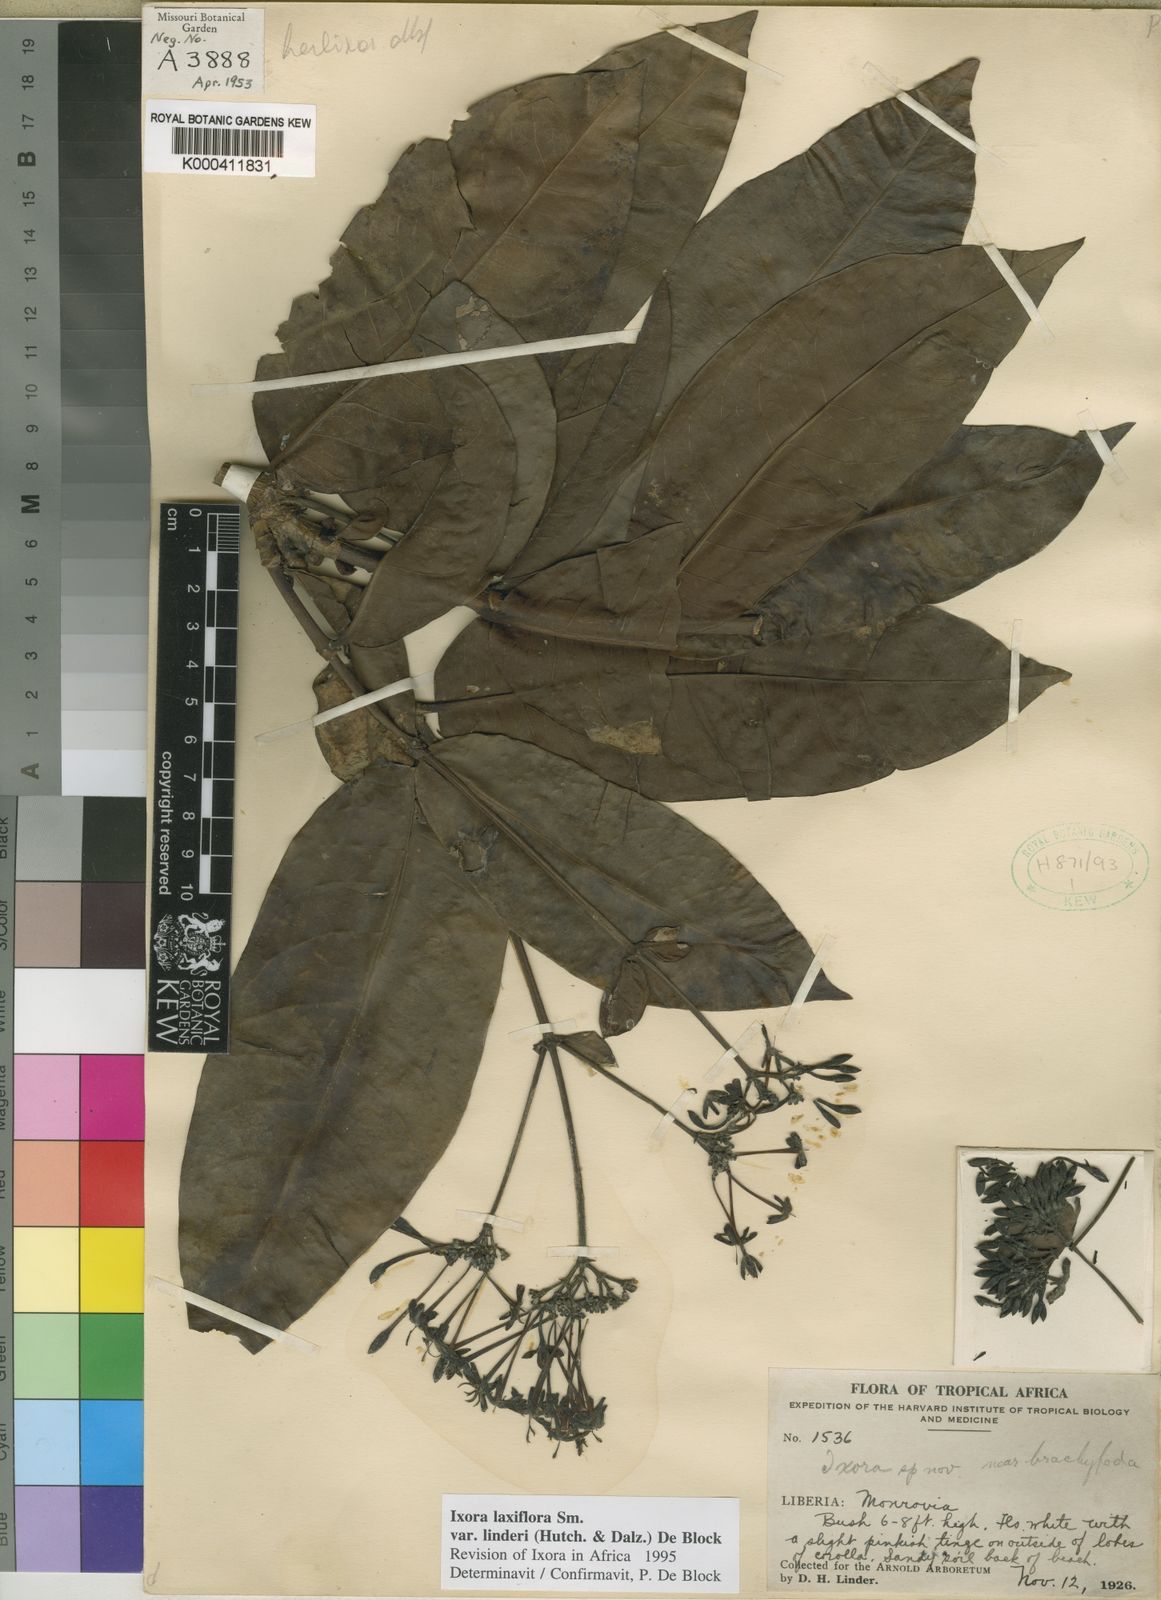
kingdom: Plantae
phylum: Tracheophyta
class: Magnoliopsida
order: Gentianales
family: Rubiaceae
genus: Ixora
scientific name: Ixora laxiflora
